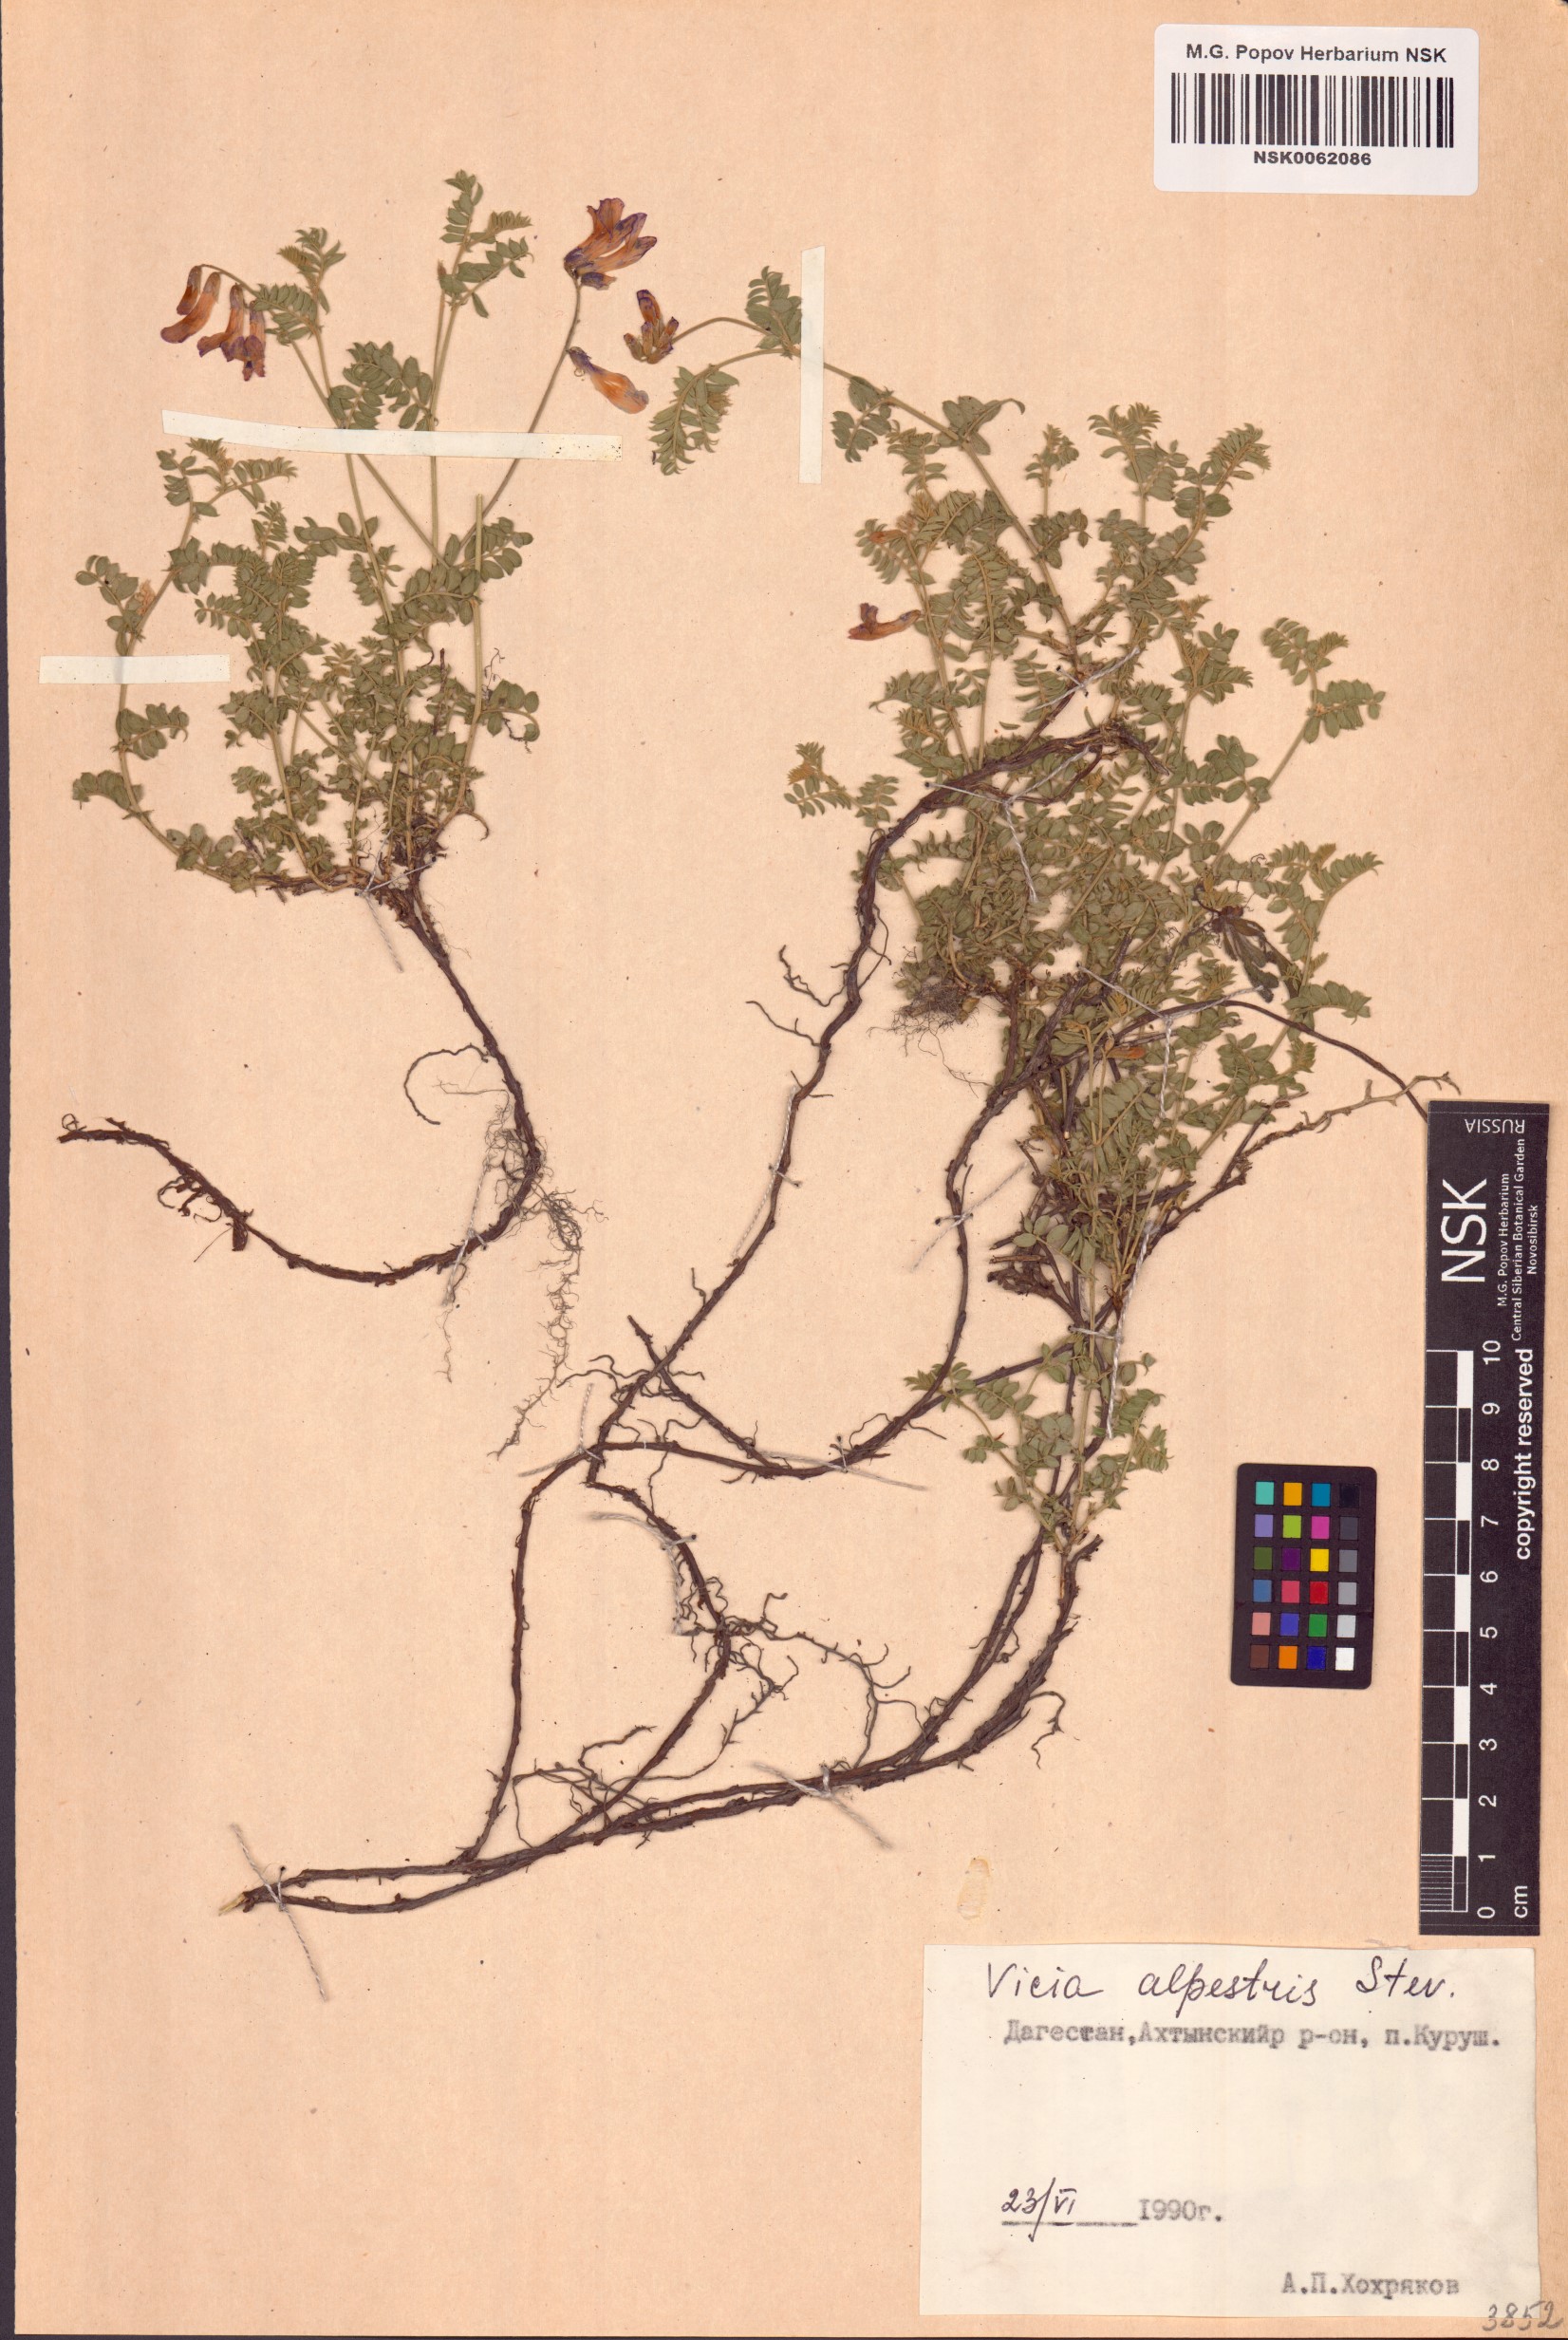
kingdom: Plantae
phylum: Tracheophyta
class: Magnoliopsida
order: Fabales
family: Fabaceae
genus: Vicia
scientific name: Vicia alpestris
